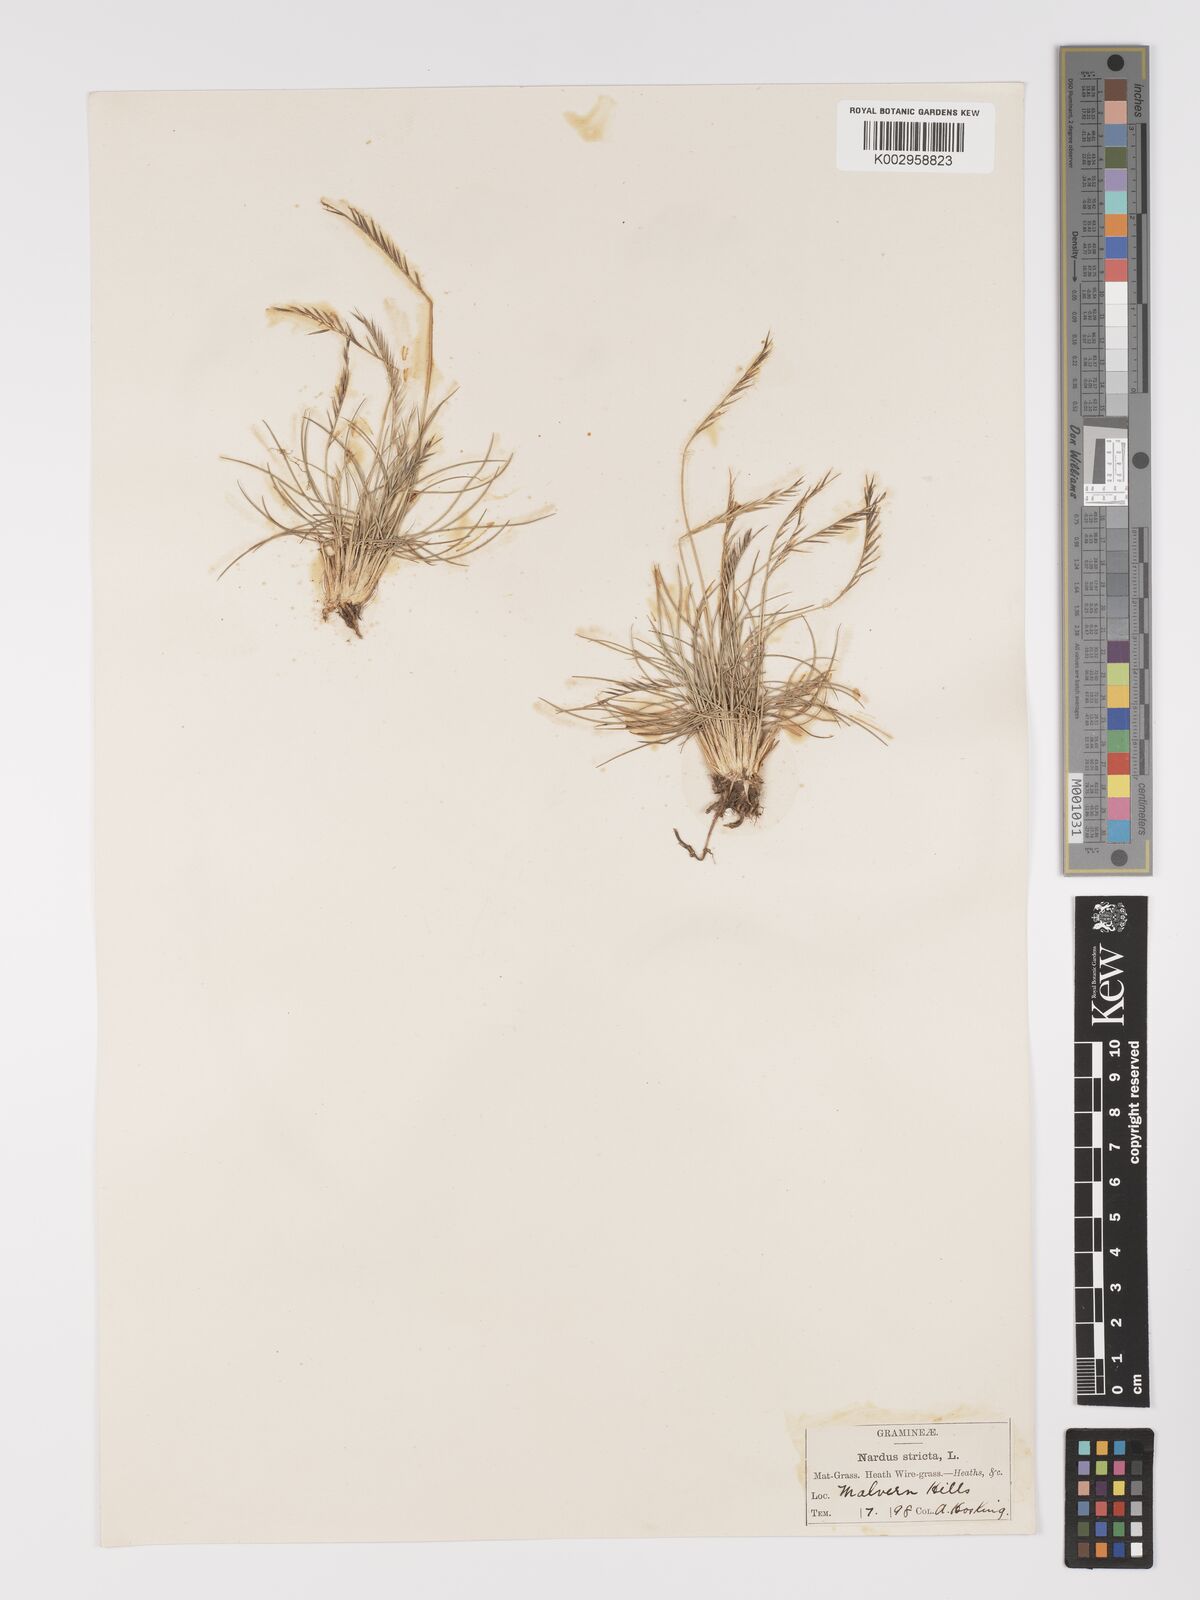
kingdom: Plantae
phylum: Tracheophyta
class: Liliopsida
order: Poales
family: Poaceae
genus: Nardus
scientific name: Nardus stricta
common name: Mat-grass
